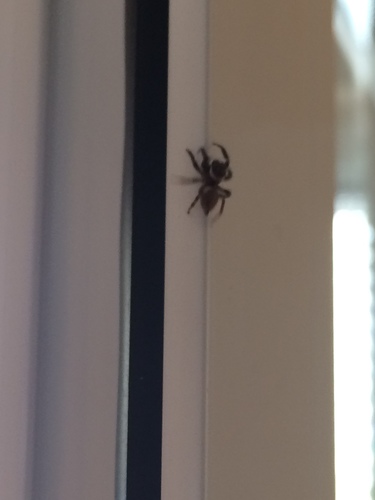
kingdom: Animalia
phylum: Arthropoda
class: Arachnida
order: Araneae
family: Salticidae
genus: Menemerus
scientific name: Menemerus semilimbatus
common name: Jumping spider
